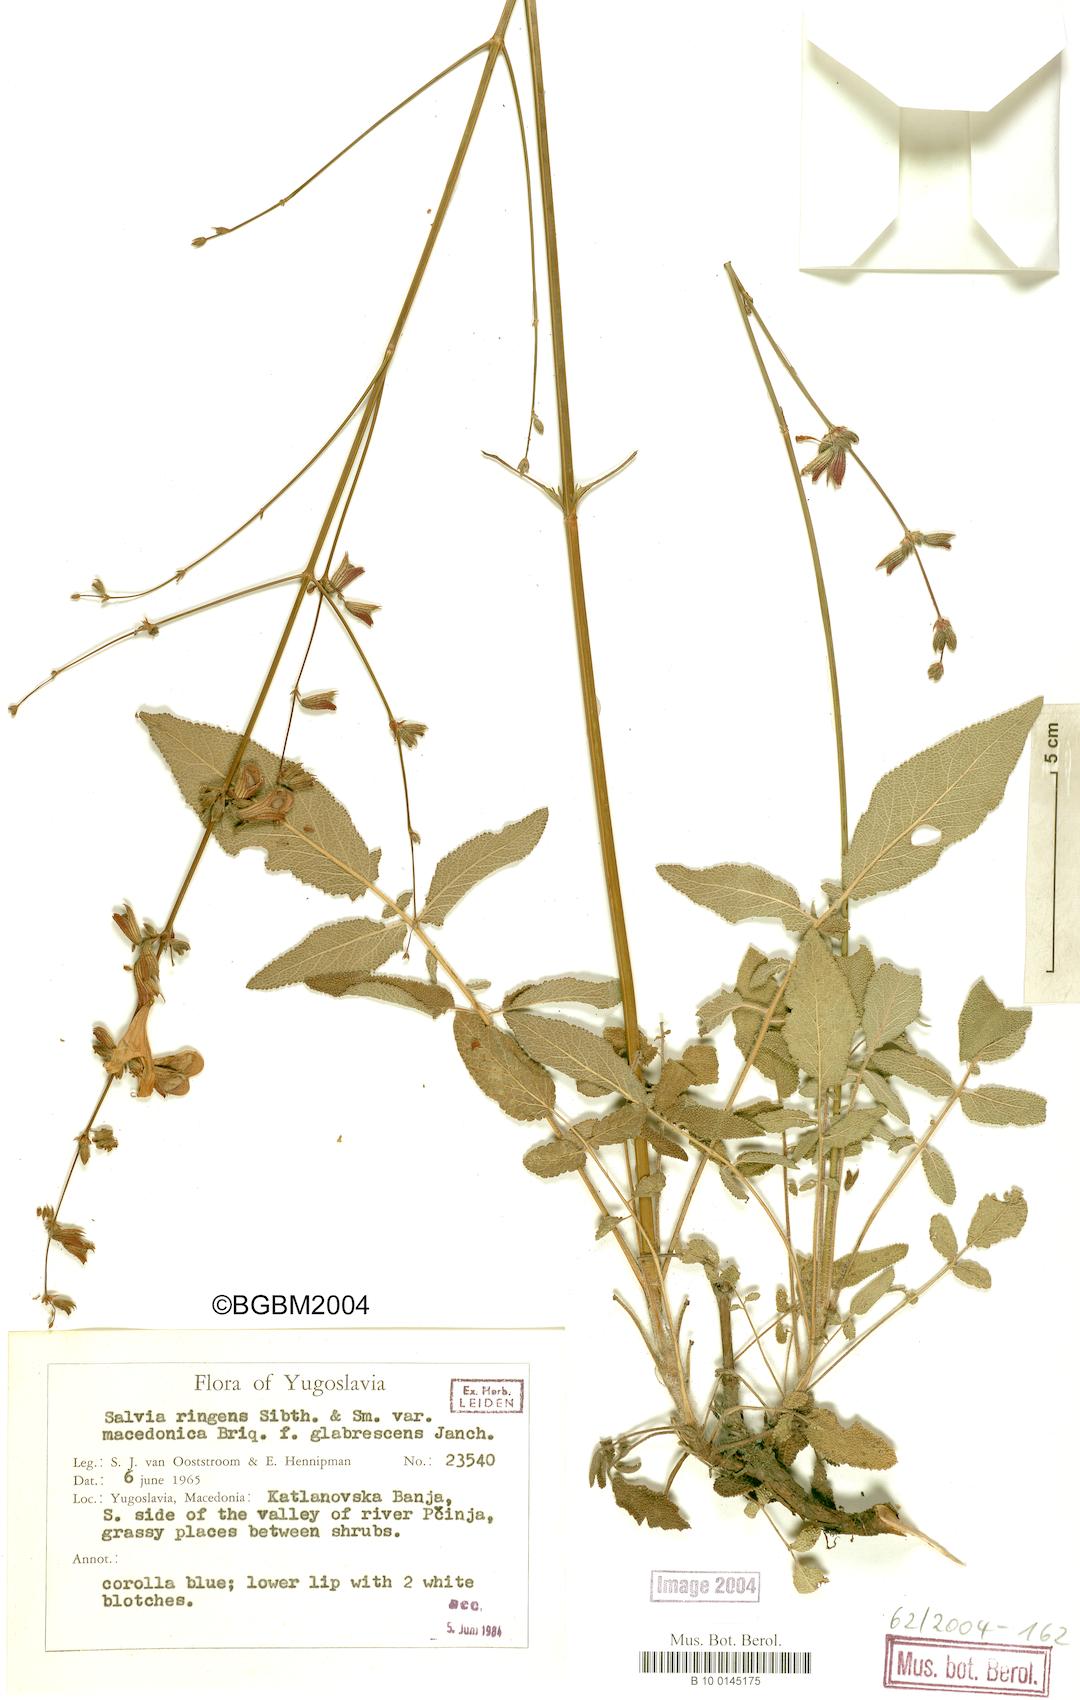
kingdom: Plantae
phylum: Tracheophyta
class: Magnoliopsida
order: Lamiales
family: Lamiaceae
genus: Salvia
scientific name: Salvia ringens
